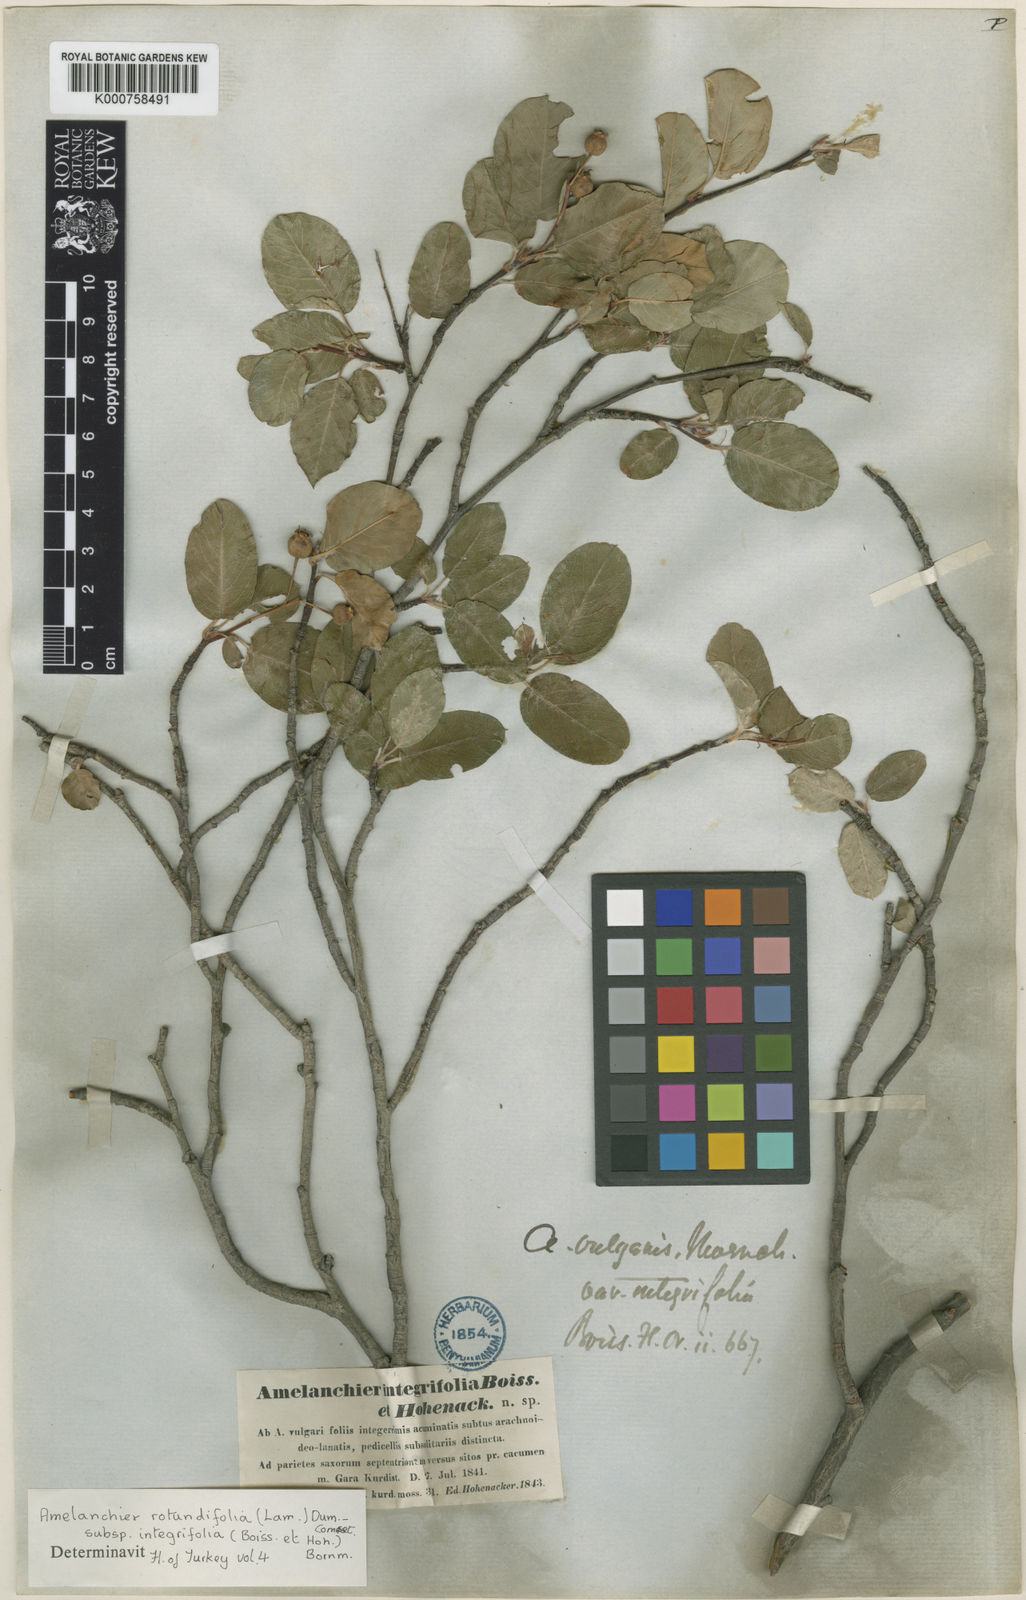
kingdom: Plantae
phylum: Tracheophyta
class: Magnoliopsida
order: Rosales
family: Rosaceae
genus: Amelanchier
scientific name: Amelanchier ovalis
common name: Serviceberry
